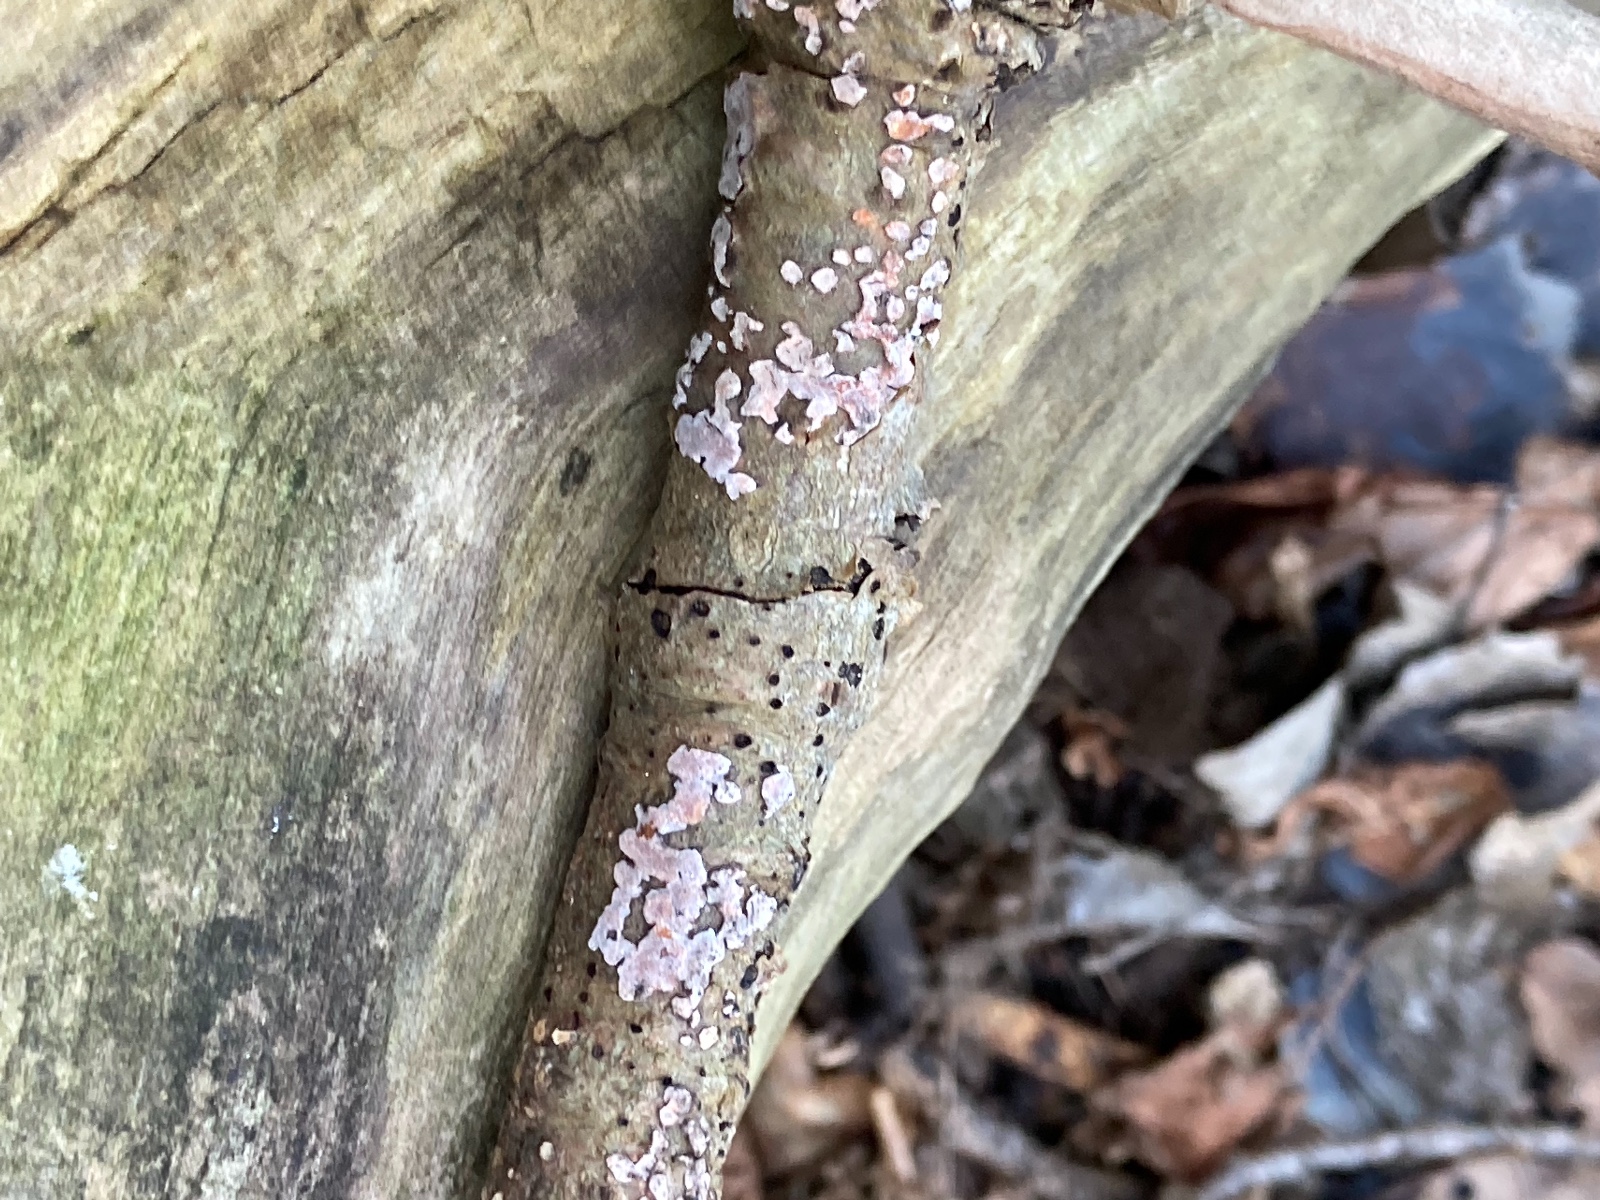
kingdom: Fungi
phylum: Basidiomycota
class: Agaricomycetes
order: Russulales
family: Peniophoraceae
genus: Peniophora
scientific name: Peniophora polygonia
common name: polygon-voksskind
